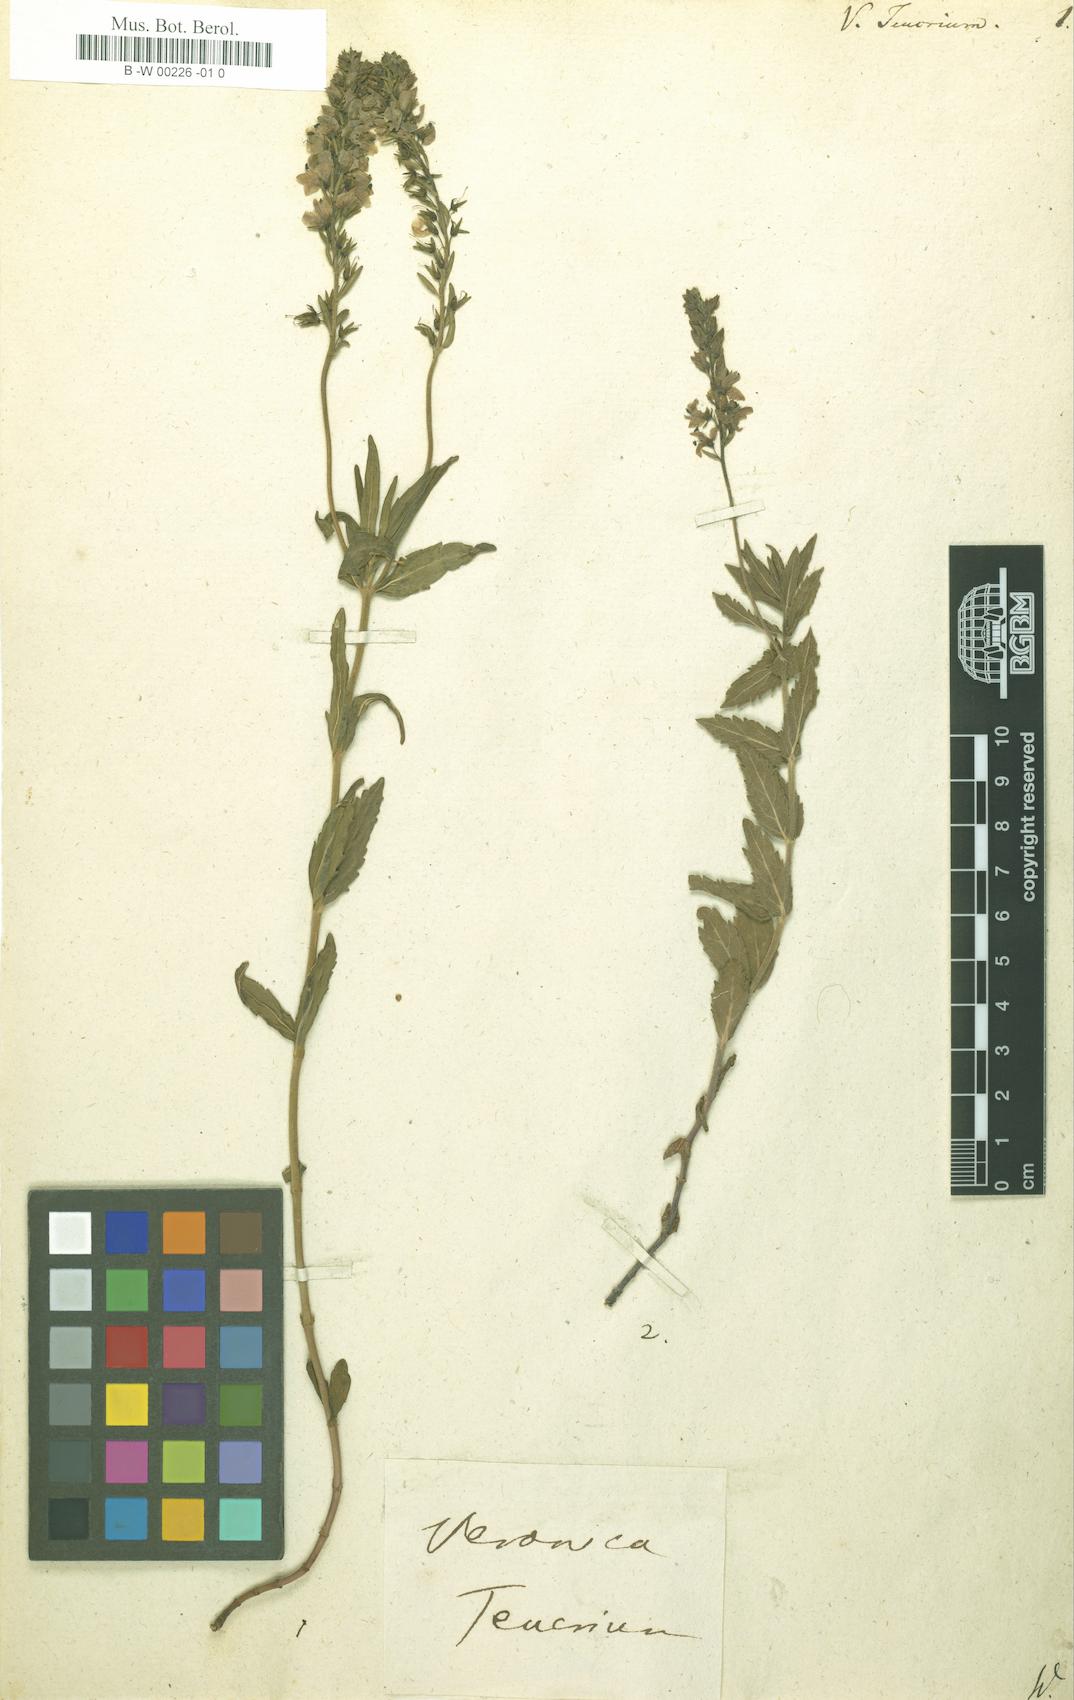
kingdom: Plantae
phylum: Tracheophyta
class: Magnoliopsida
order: Lamiales
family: Plantaginaceae
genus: Veronica
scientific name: Veronica teucrium
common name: Large speedwell
